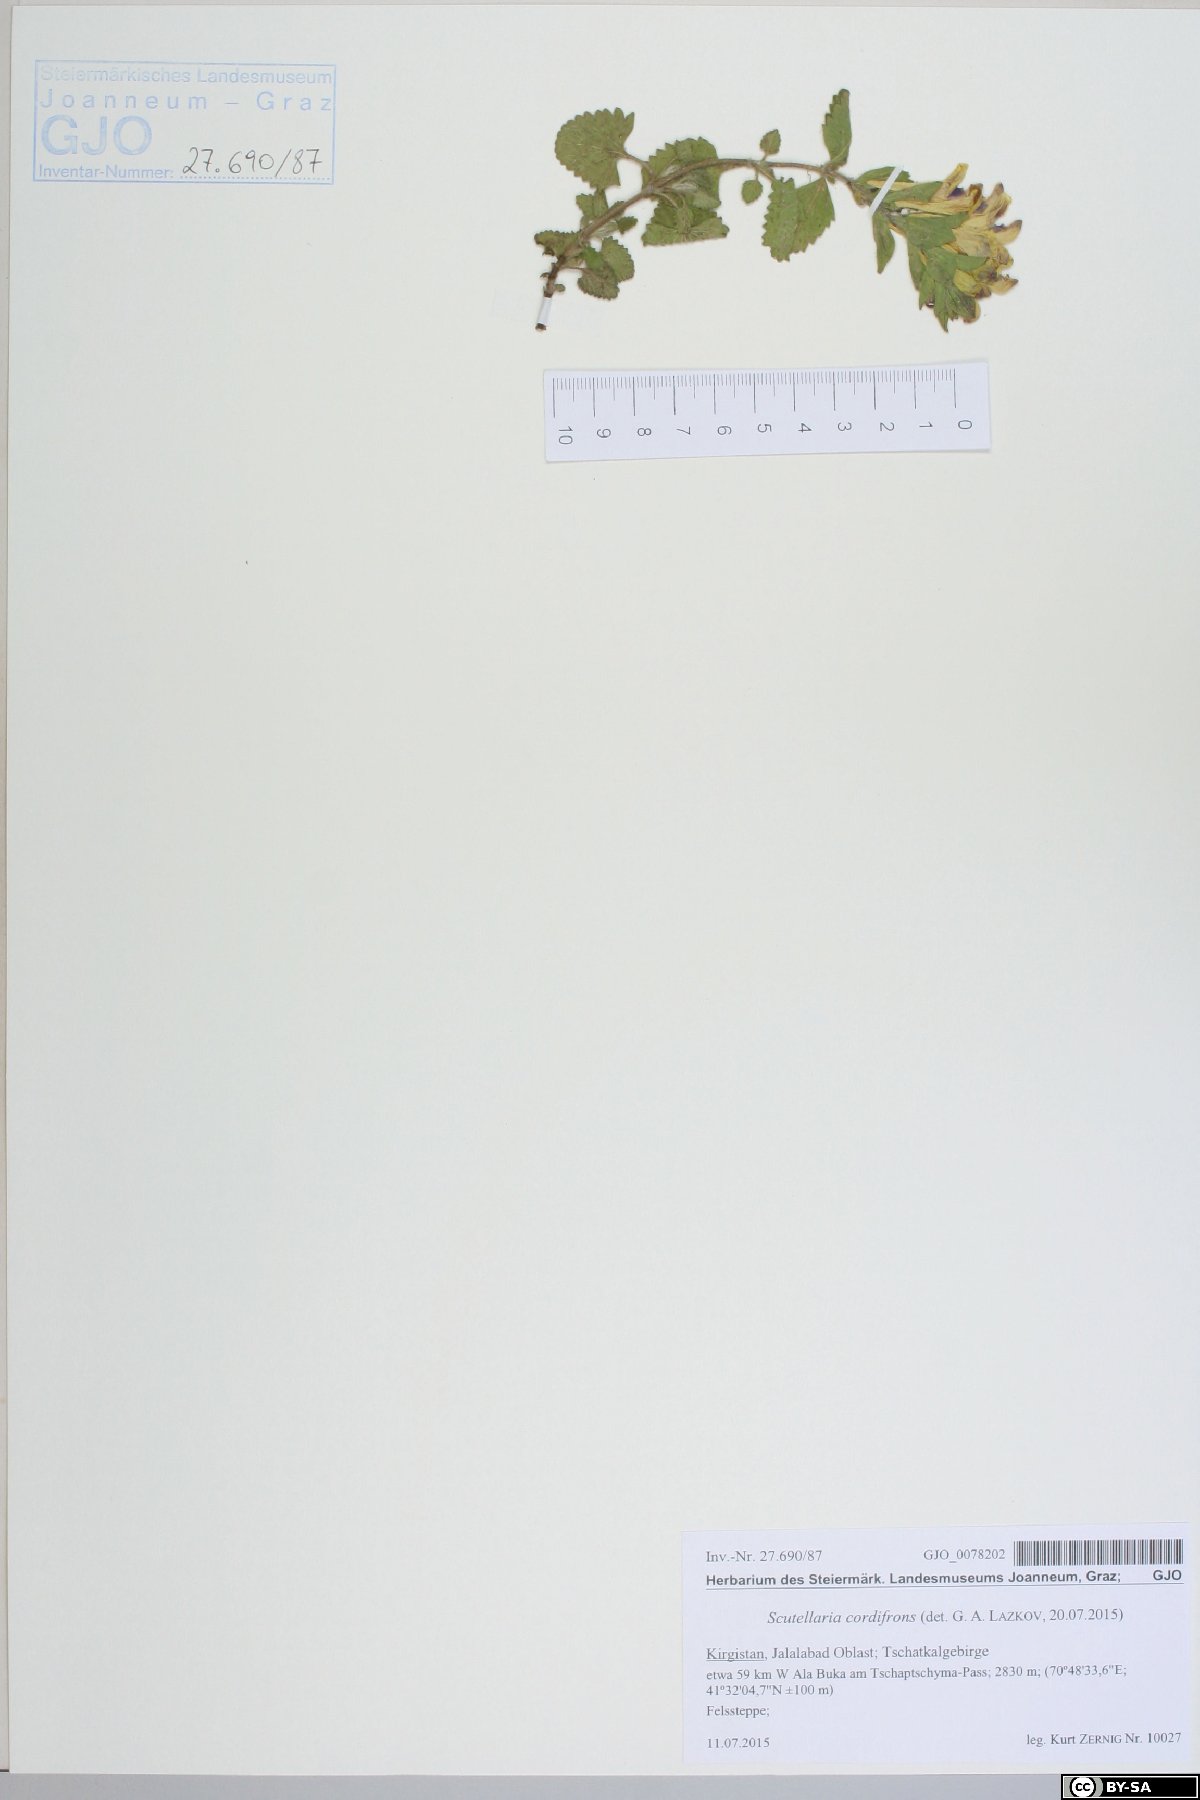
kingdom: Plantae
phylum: Tracheophyta
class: Magnoliopsida
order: Lamiales
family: Lamiaceae
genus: Scutellaria
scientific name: Scutellaria cordifrons
